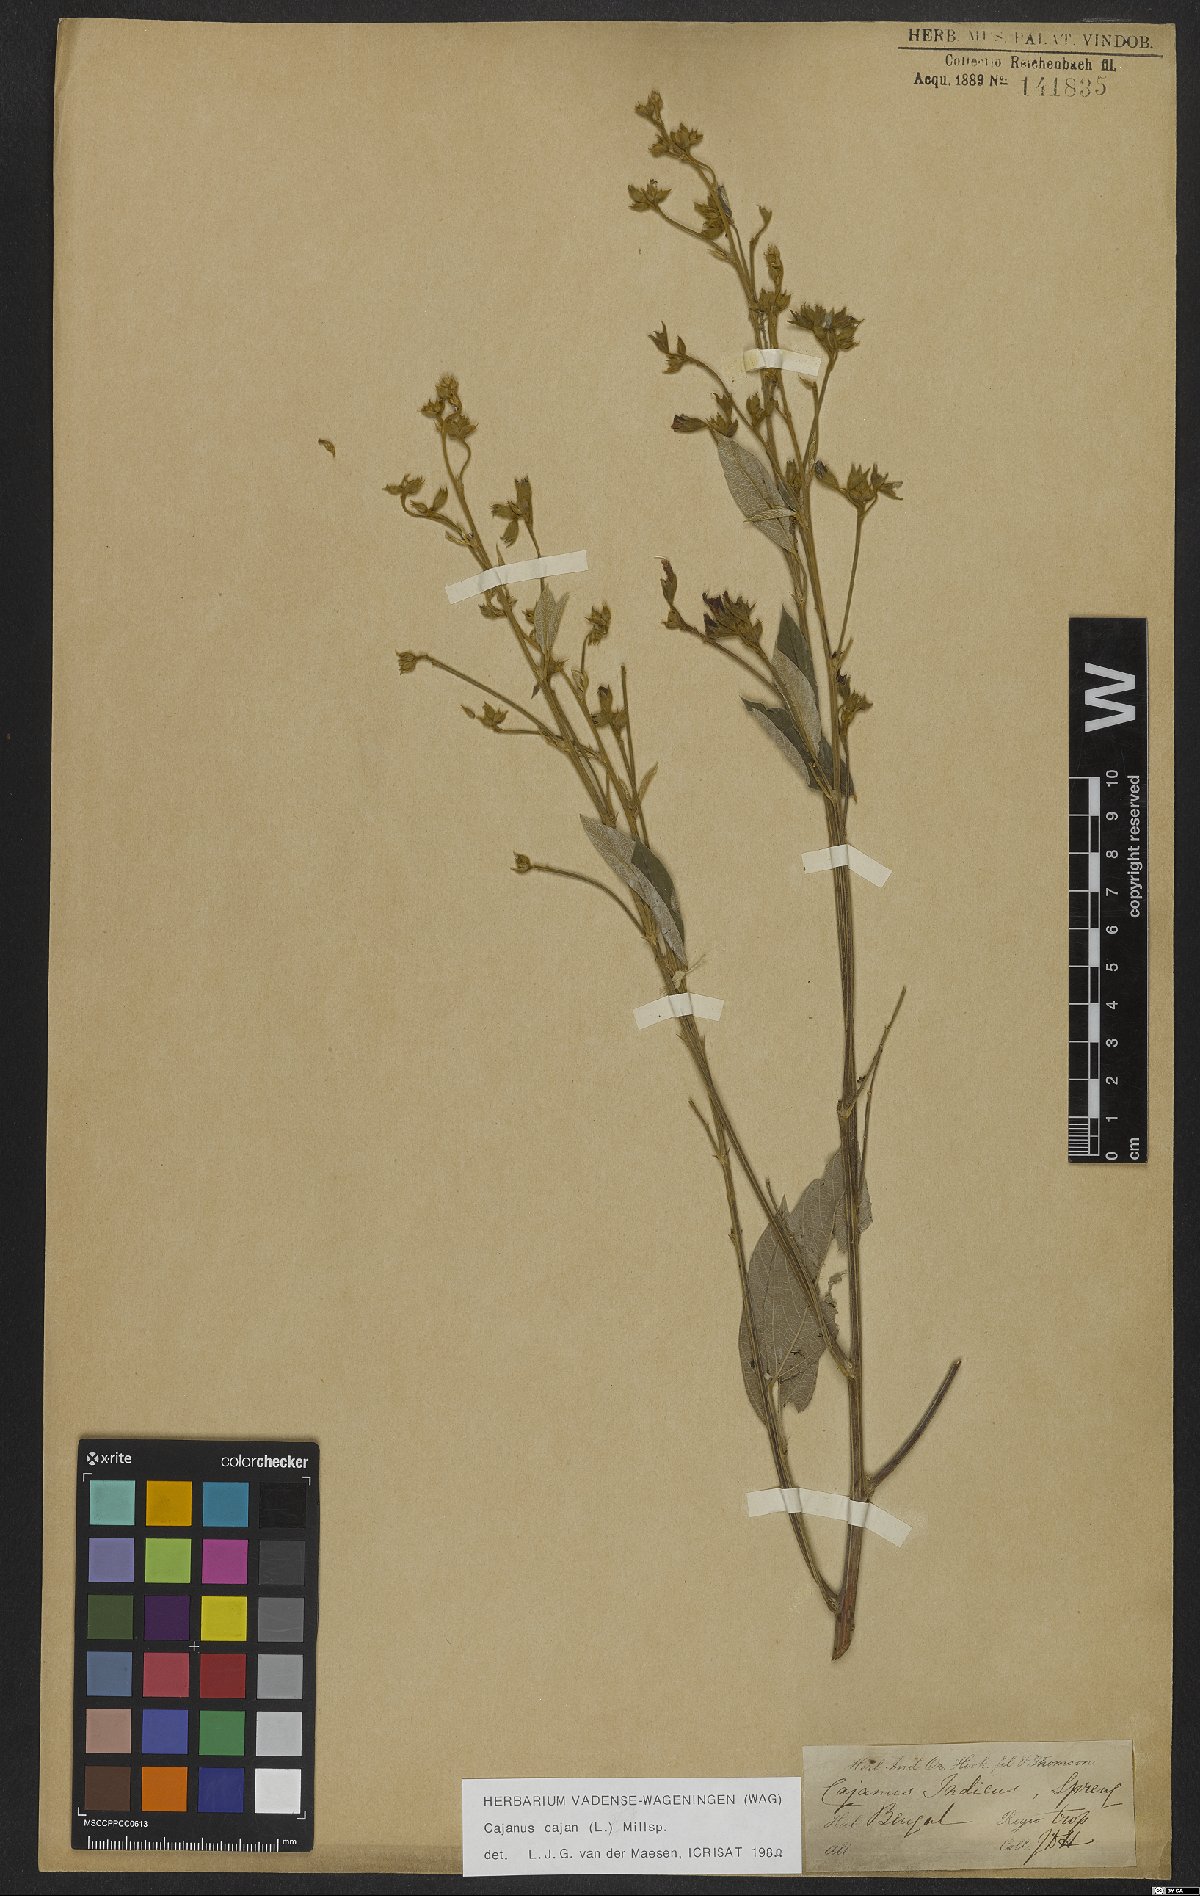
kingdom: Plantae
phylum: Tracheophyta
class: Magnoliopsida
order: Fabales
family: Fabaceae
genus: Cajanus
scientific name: Cajanus cajan
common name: Pigeonpea
